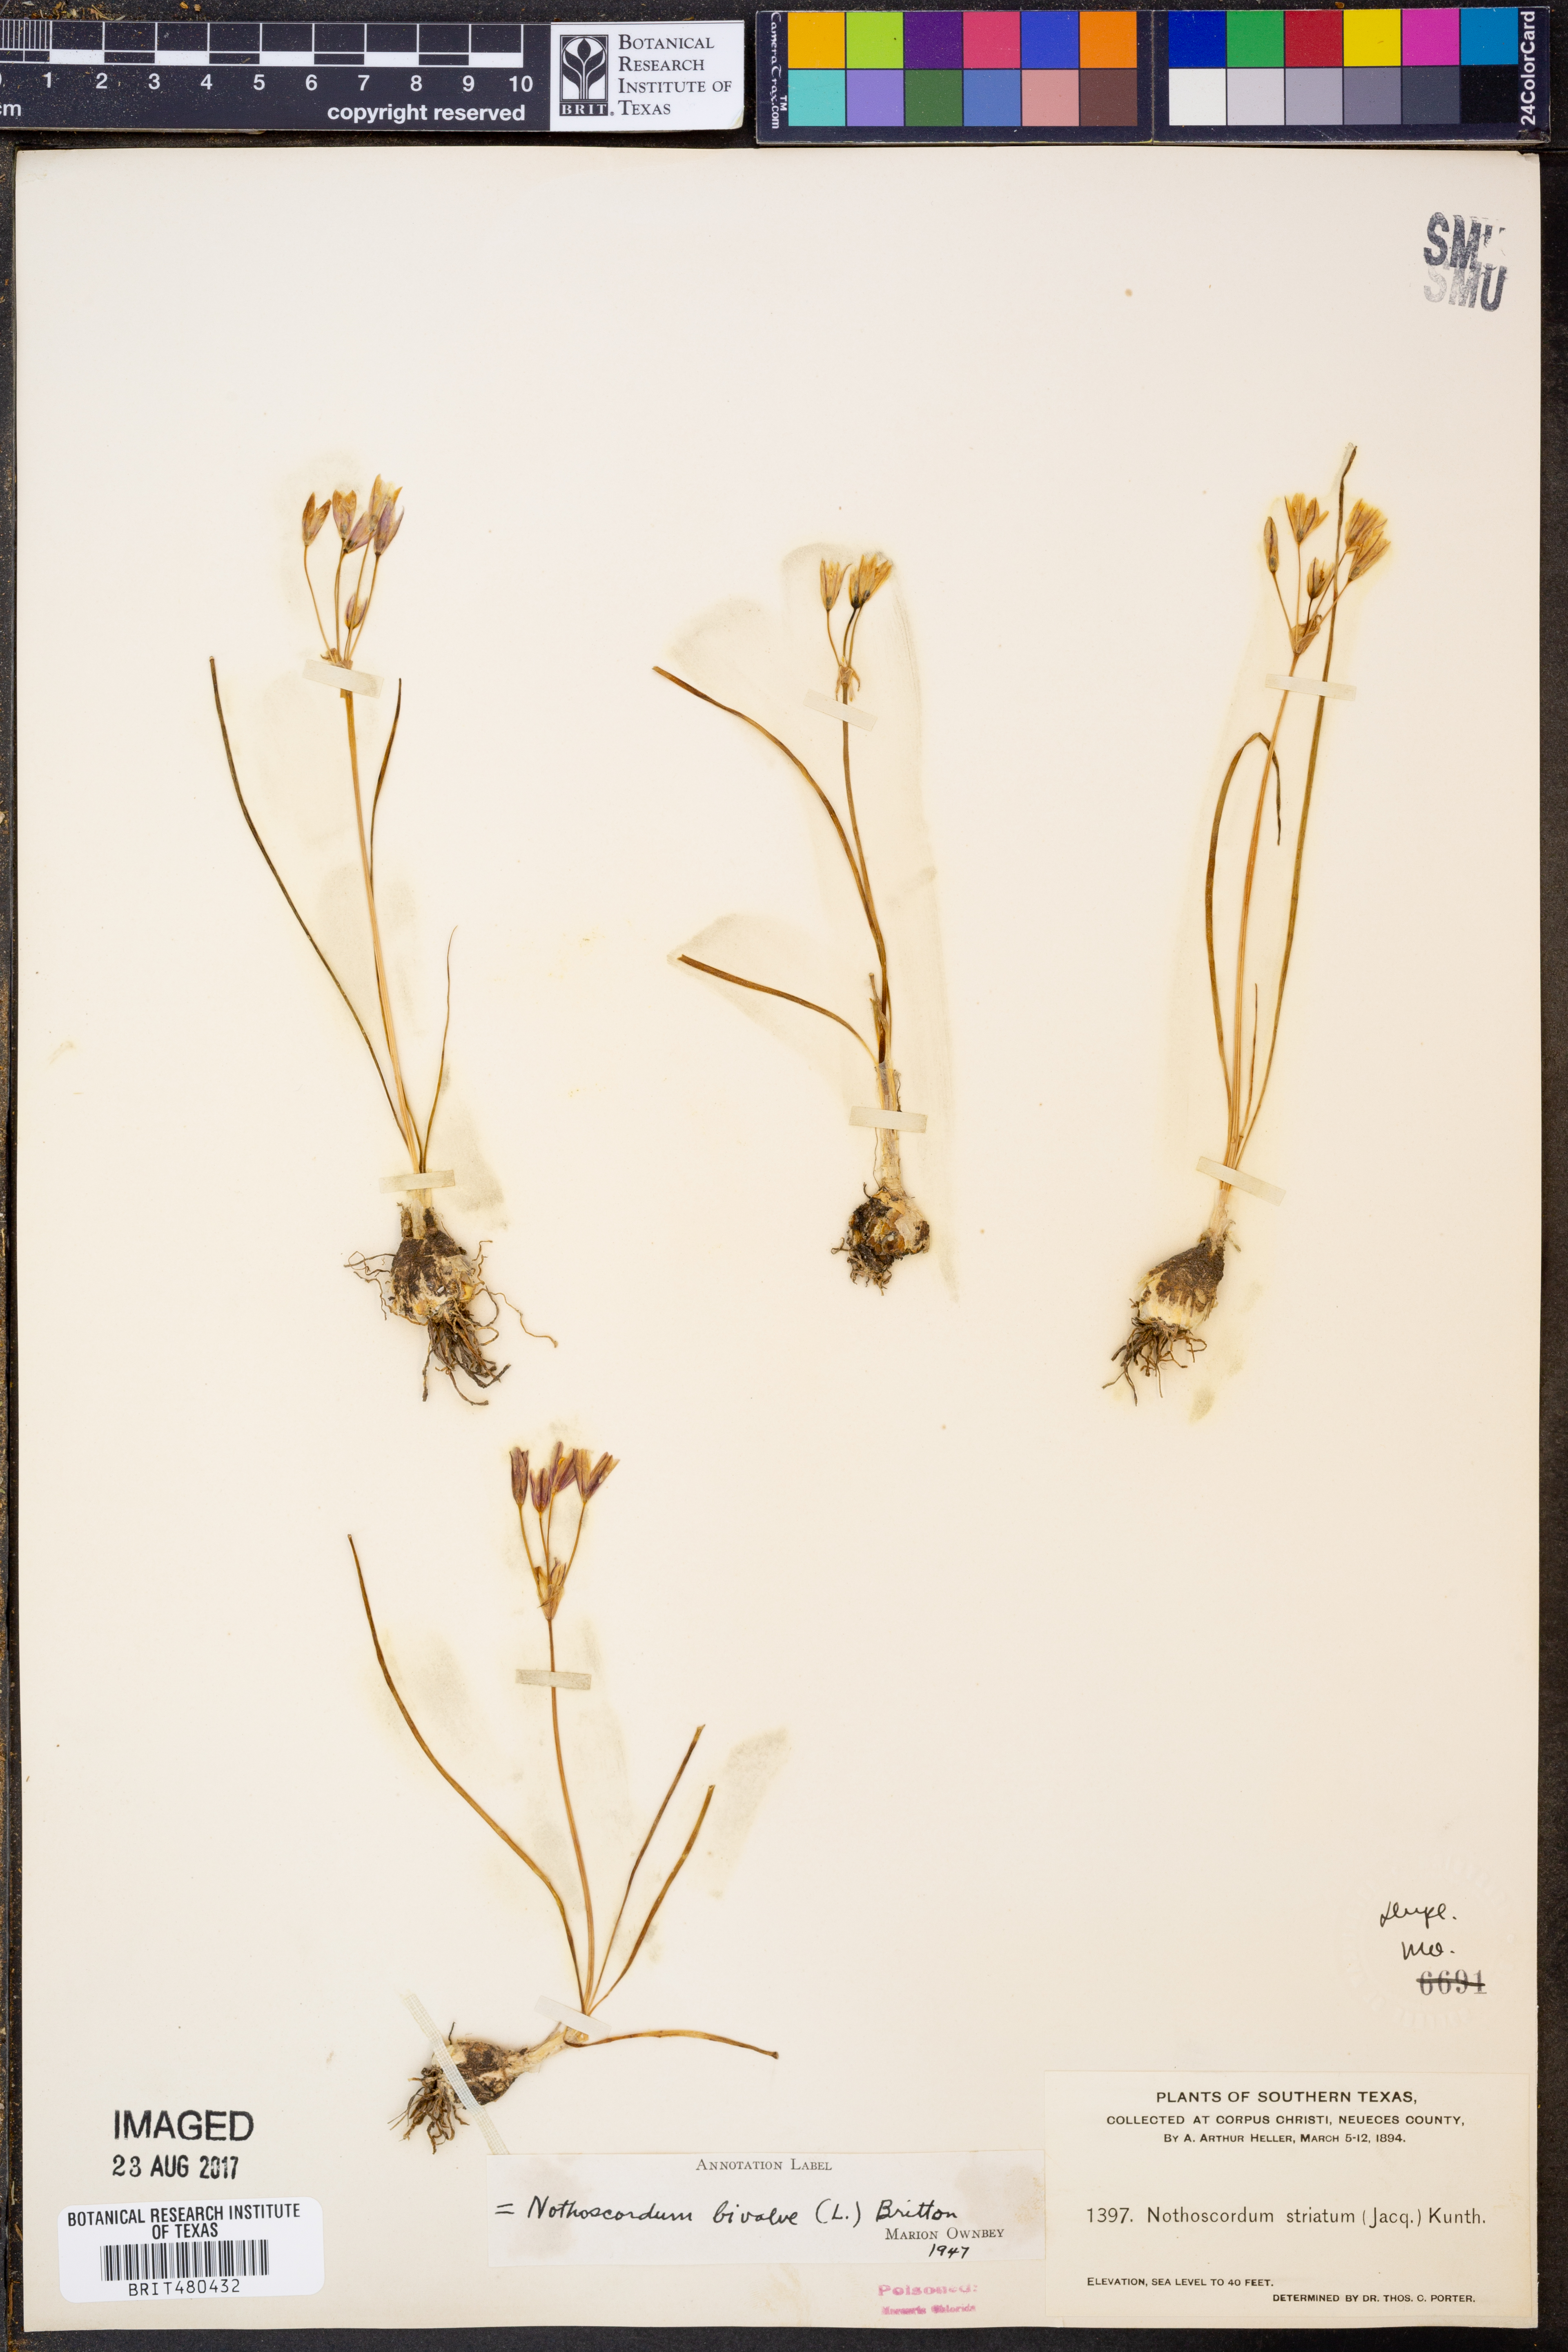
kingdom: Plantae
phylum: Tracheophyta
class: Liliopsida
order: Asparagales
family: Amaryllidaceae
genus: Nothoscordum
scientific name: Nothoscordum bivalve
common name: Crow-poison
